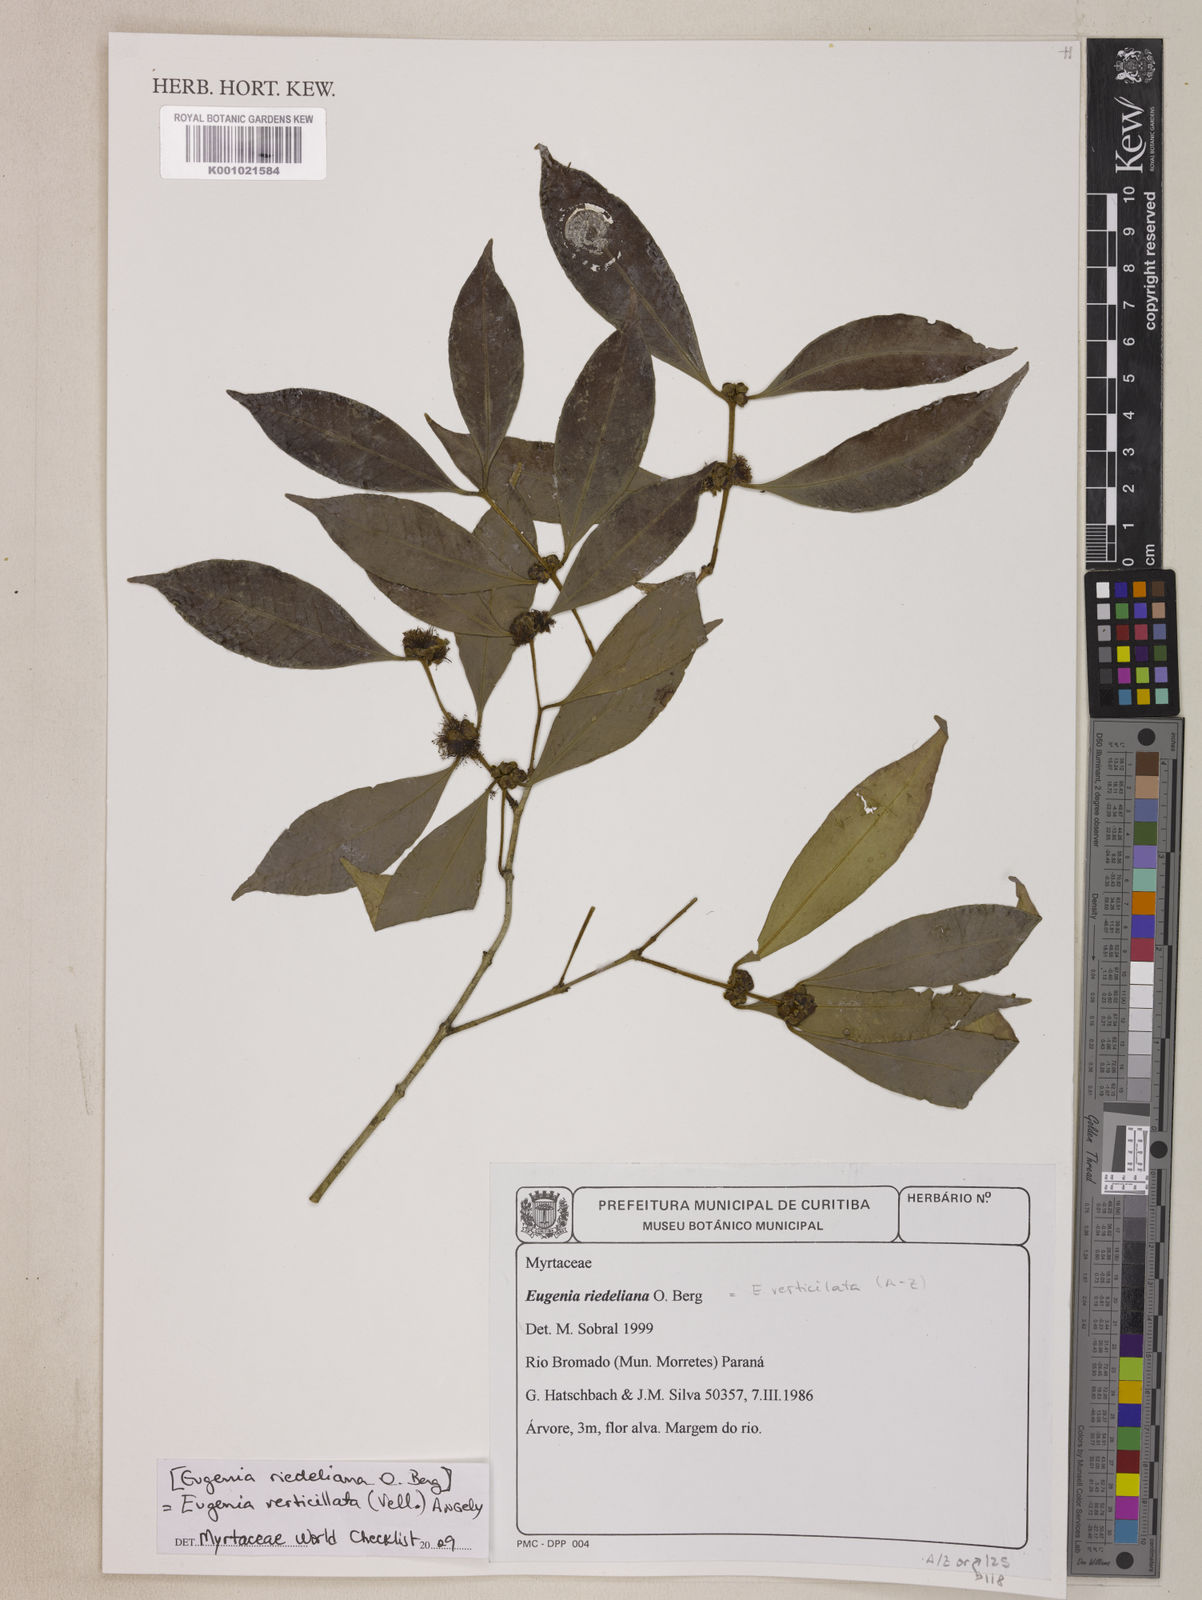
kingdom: Plantae
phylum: Tracheophyta
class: Magnoliopsida
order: Myrtales
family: Myrtaceae
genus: Eugenia
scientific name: Eugenia verticillata
